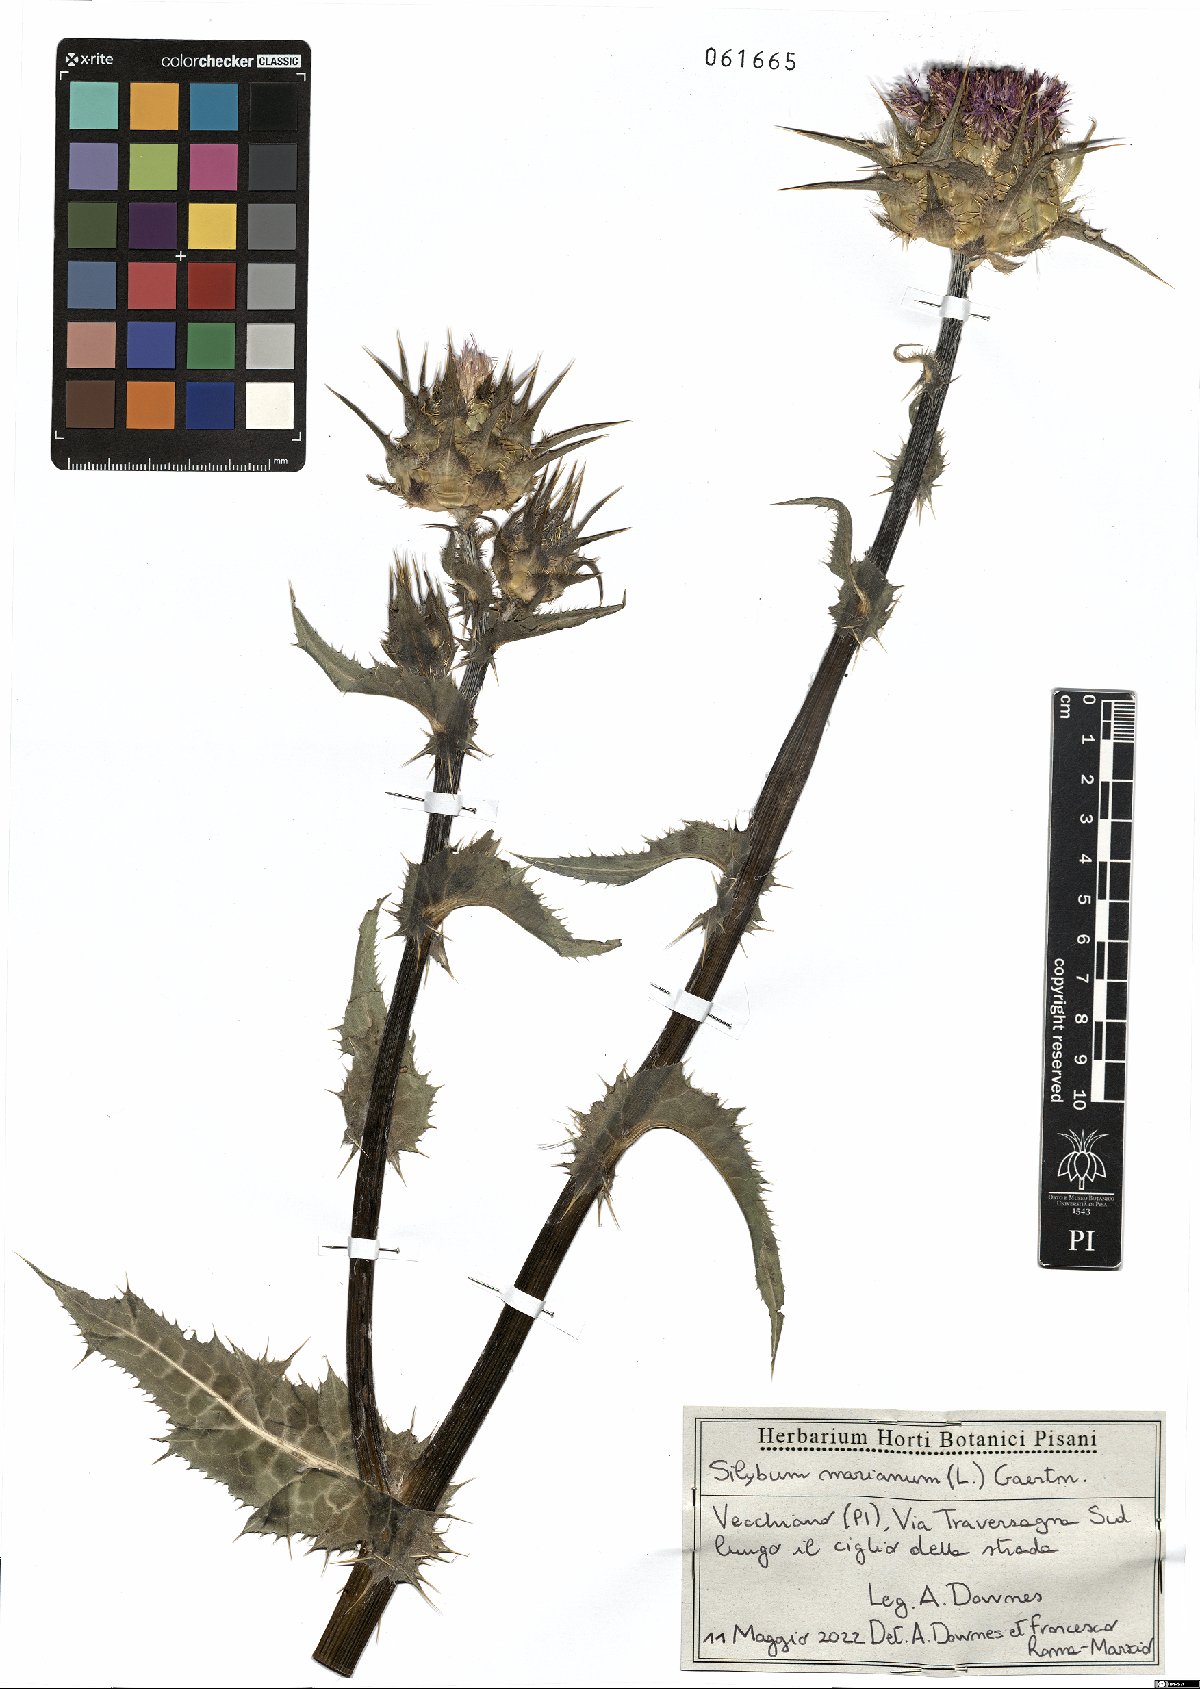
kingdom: Plantae
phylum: Tracheophyta
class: Magnoliopsida
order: Asterales
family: Asteraceae
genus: Silybum
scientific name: Silybum marianum
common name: Milk thistle
